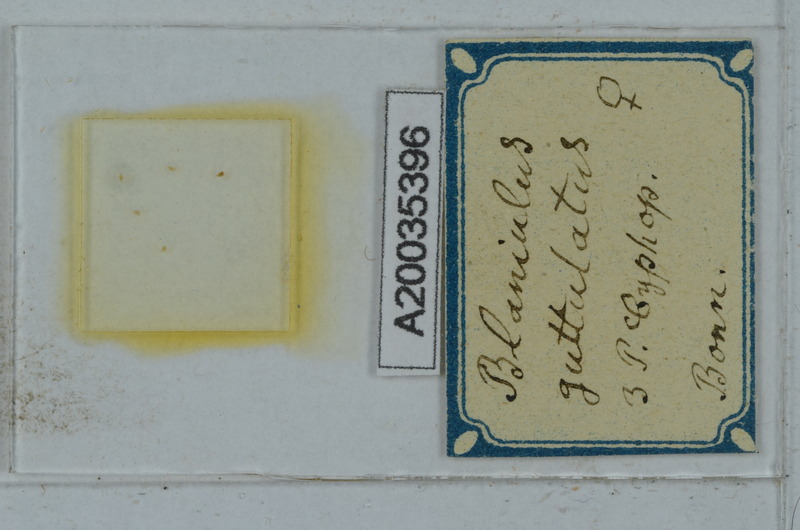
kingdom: Animalia
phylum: Arthropoda
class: Diplopoda
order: Julida
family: Blaniulidae
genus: Nopoiulus
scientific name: Nopoiulus palmatus
